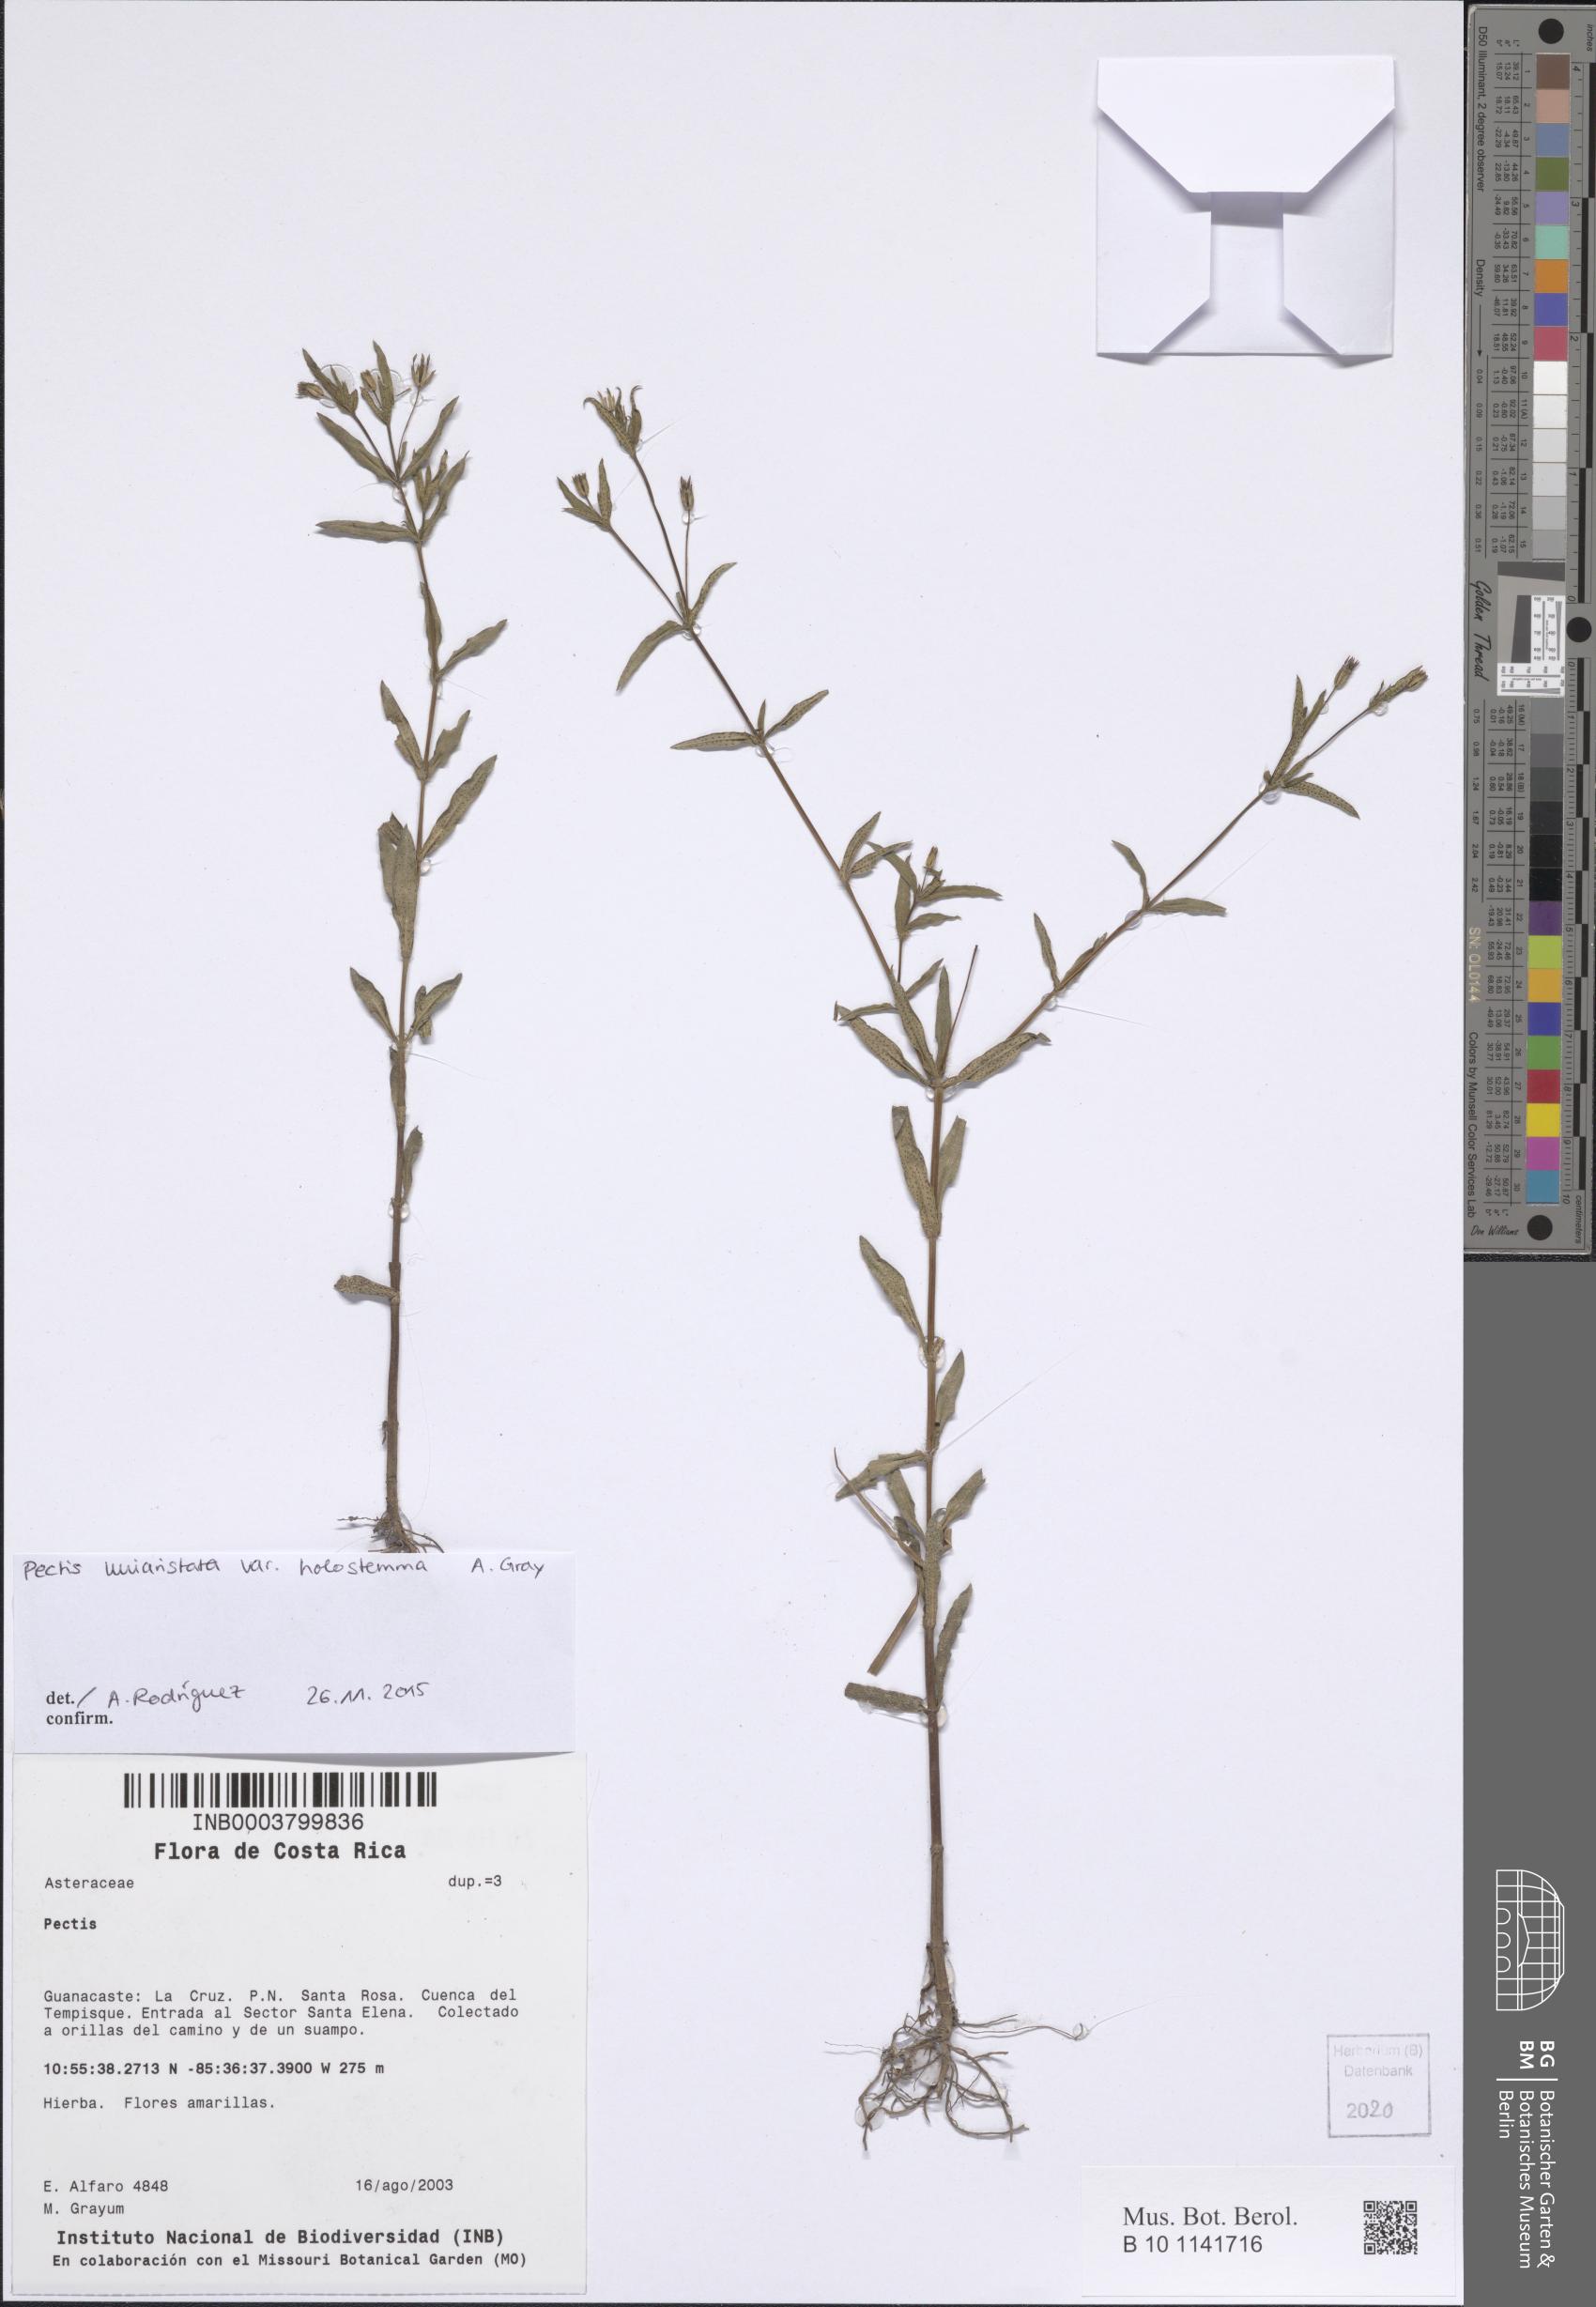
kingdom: Plantae
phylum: Tracheophyta
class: Magnoliopsida
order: Asterales
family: Asteraceae
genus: Pectis
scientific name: Pectis uniaristata
